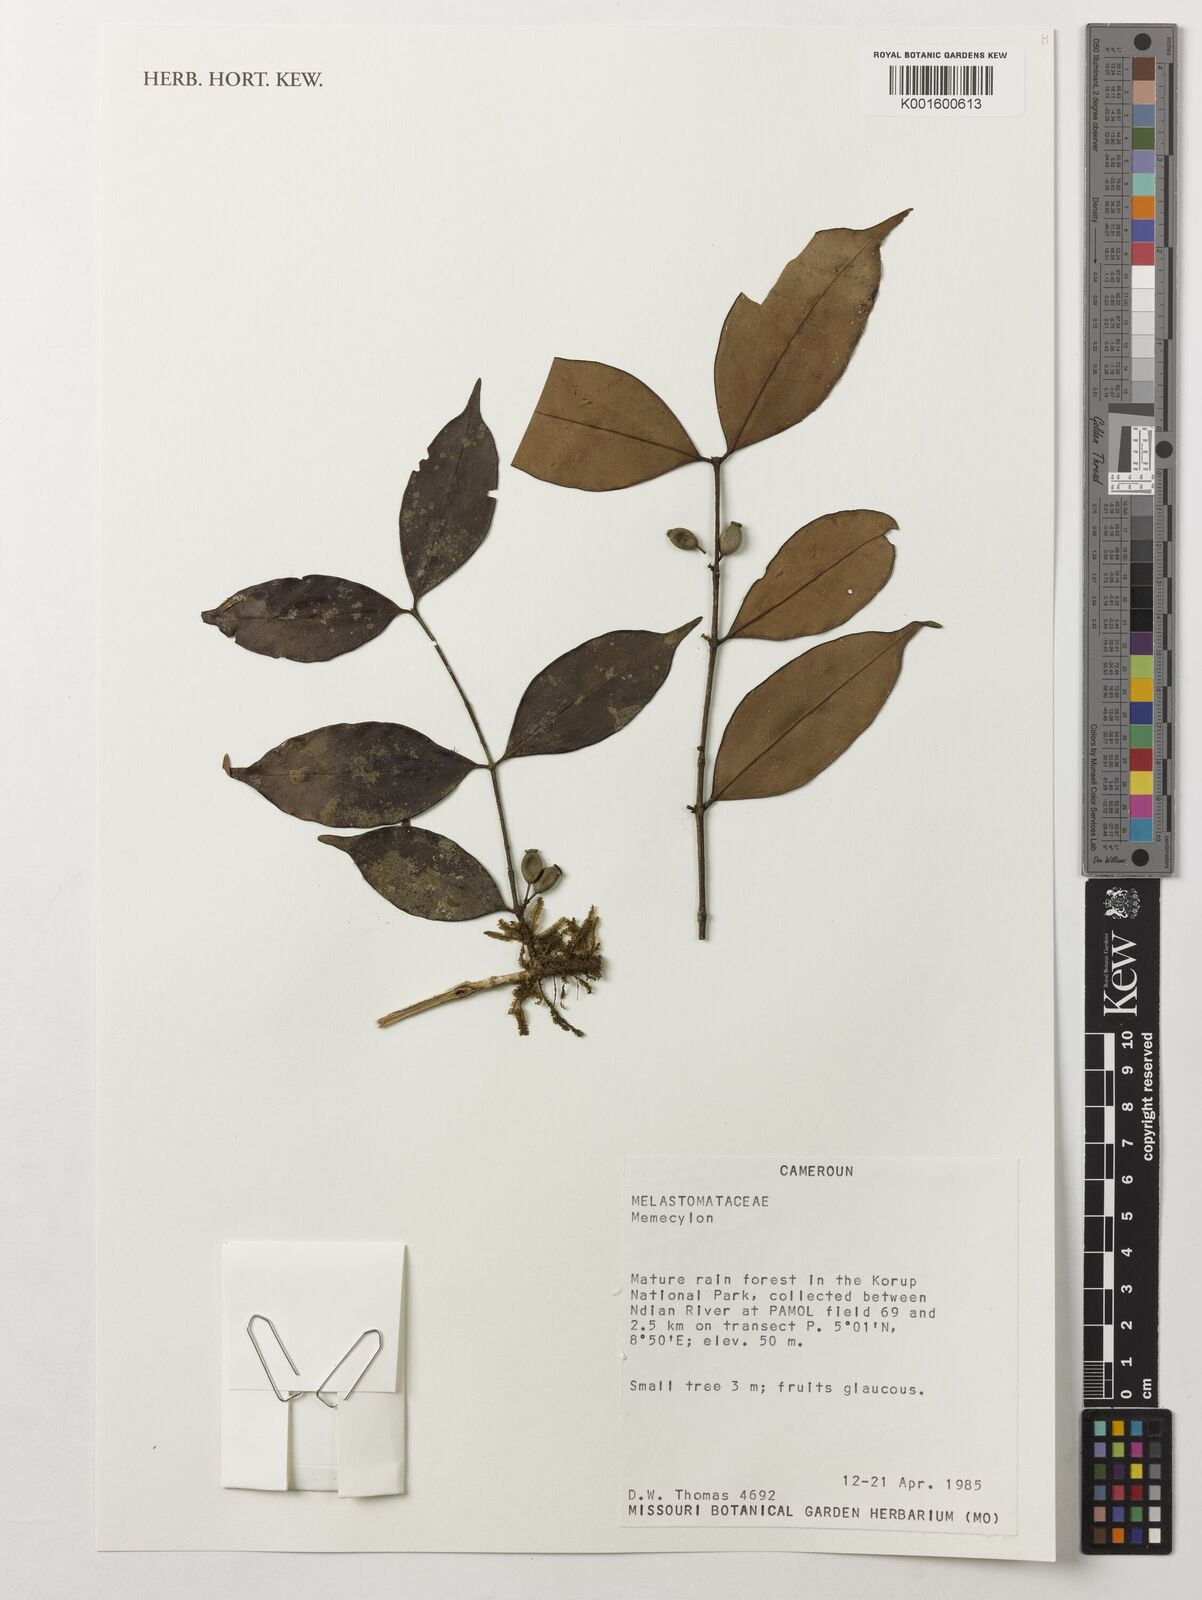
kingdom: Plantae
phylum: Tracheophyta
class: Magnoliopsida
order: Myrtales
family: Melastomataceae
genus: Memecylon
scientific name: Memecylon
